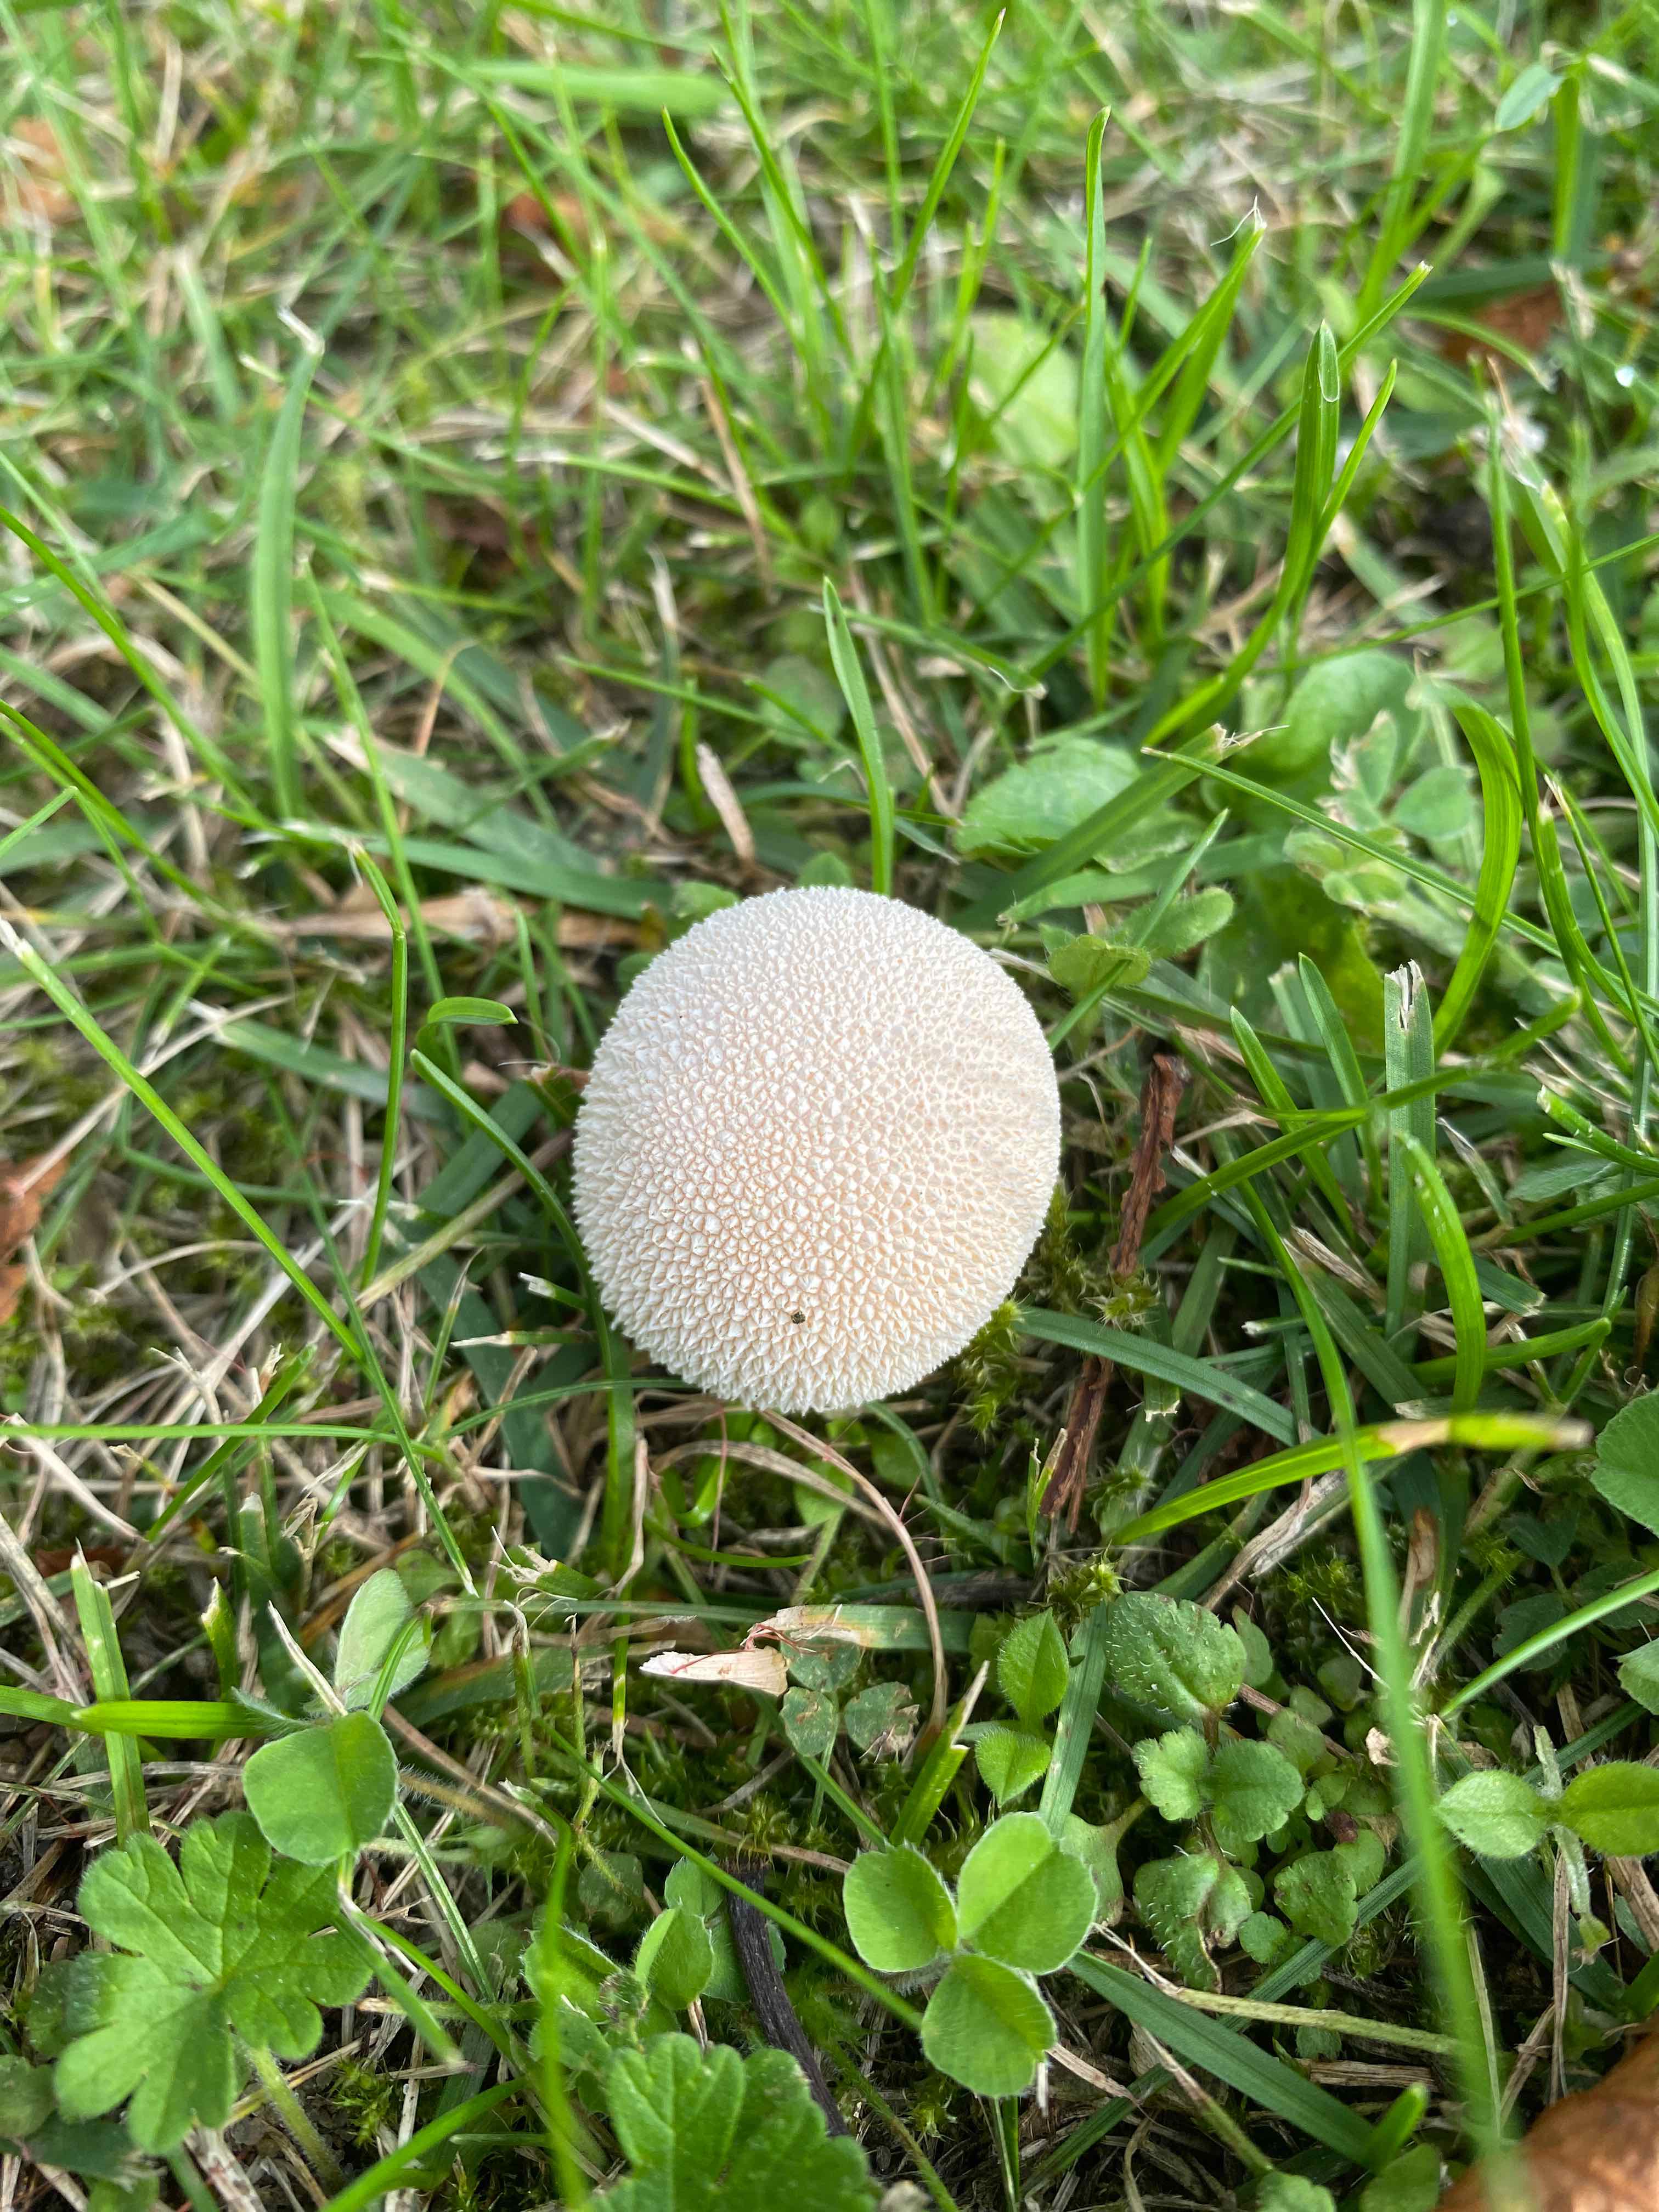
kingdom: Fungi
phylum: Basidiomycota
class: Agaricomycetes
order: Agaricales
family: Agaricaceae
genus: Lycoperdon
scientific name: Lycoperdon
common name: støvbold
